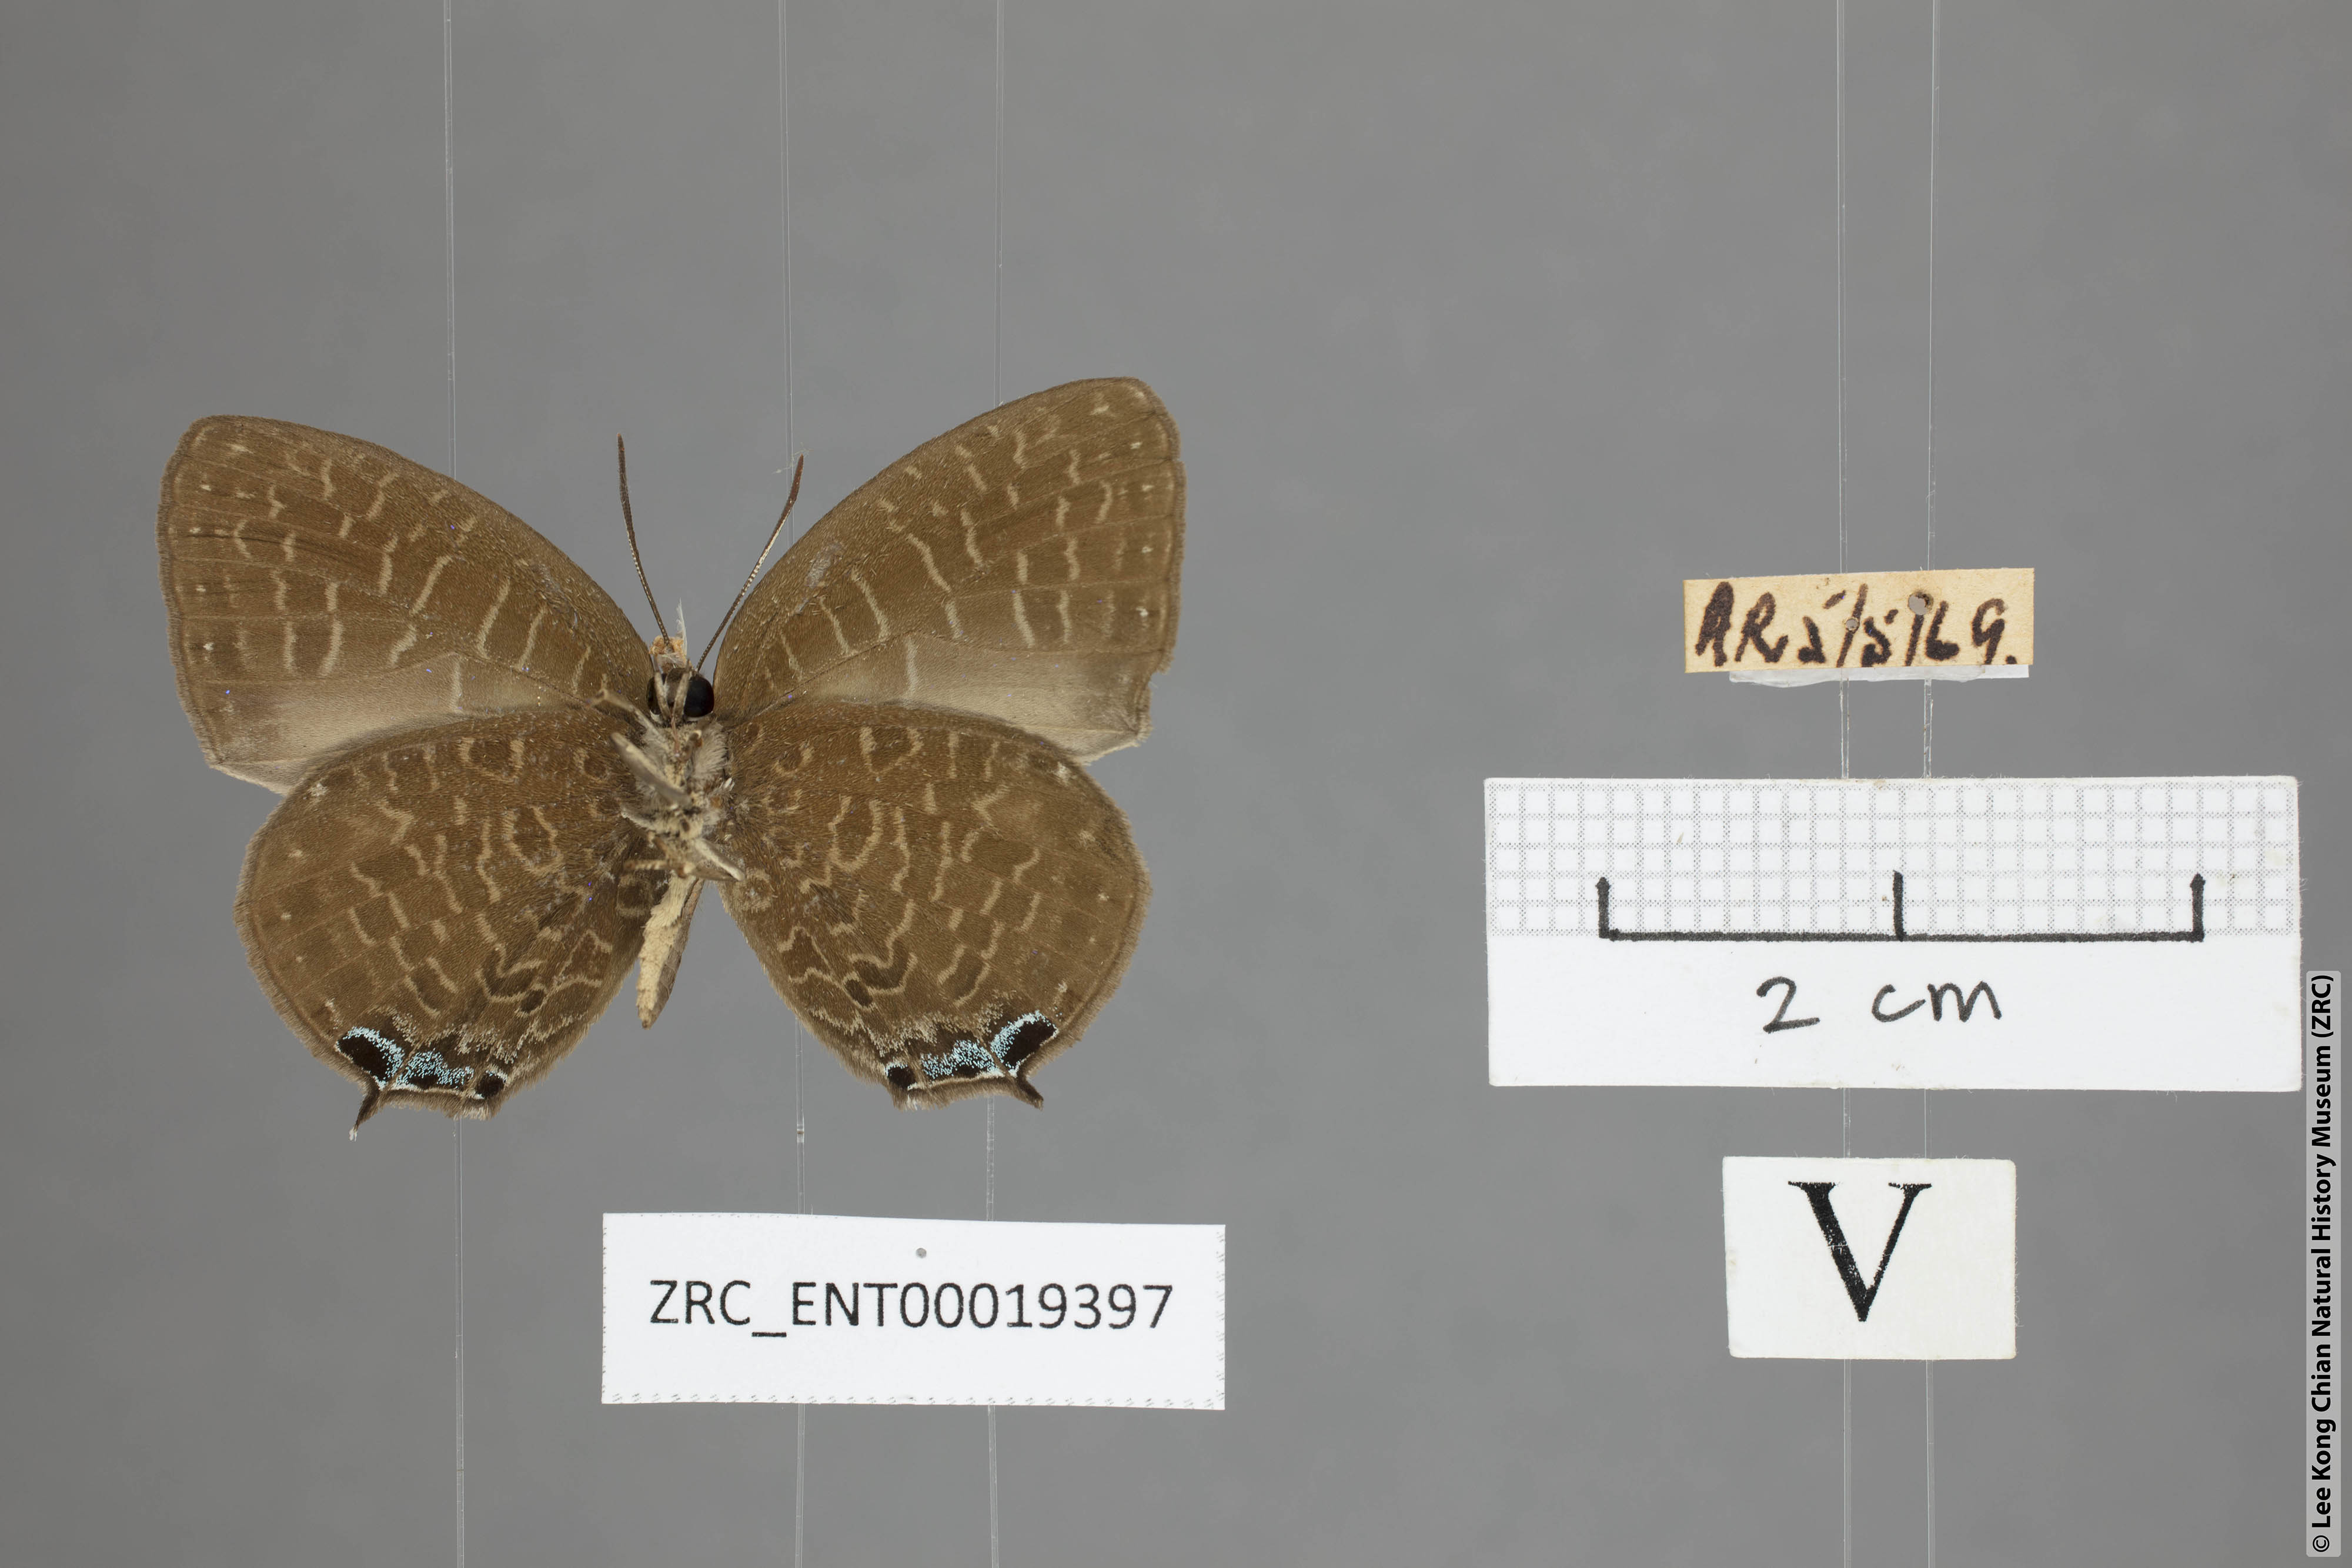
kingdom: Animalia
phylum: Arthropoda
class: Insecta
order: Lepidoptera
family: Lycaenidae
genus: Arhopala
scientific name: Arhopala democritus
